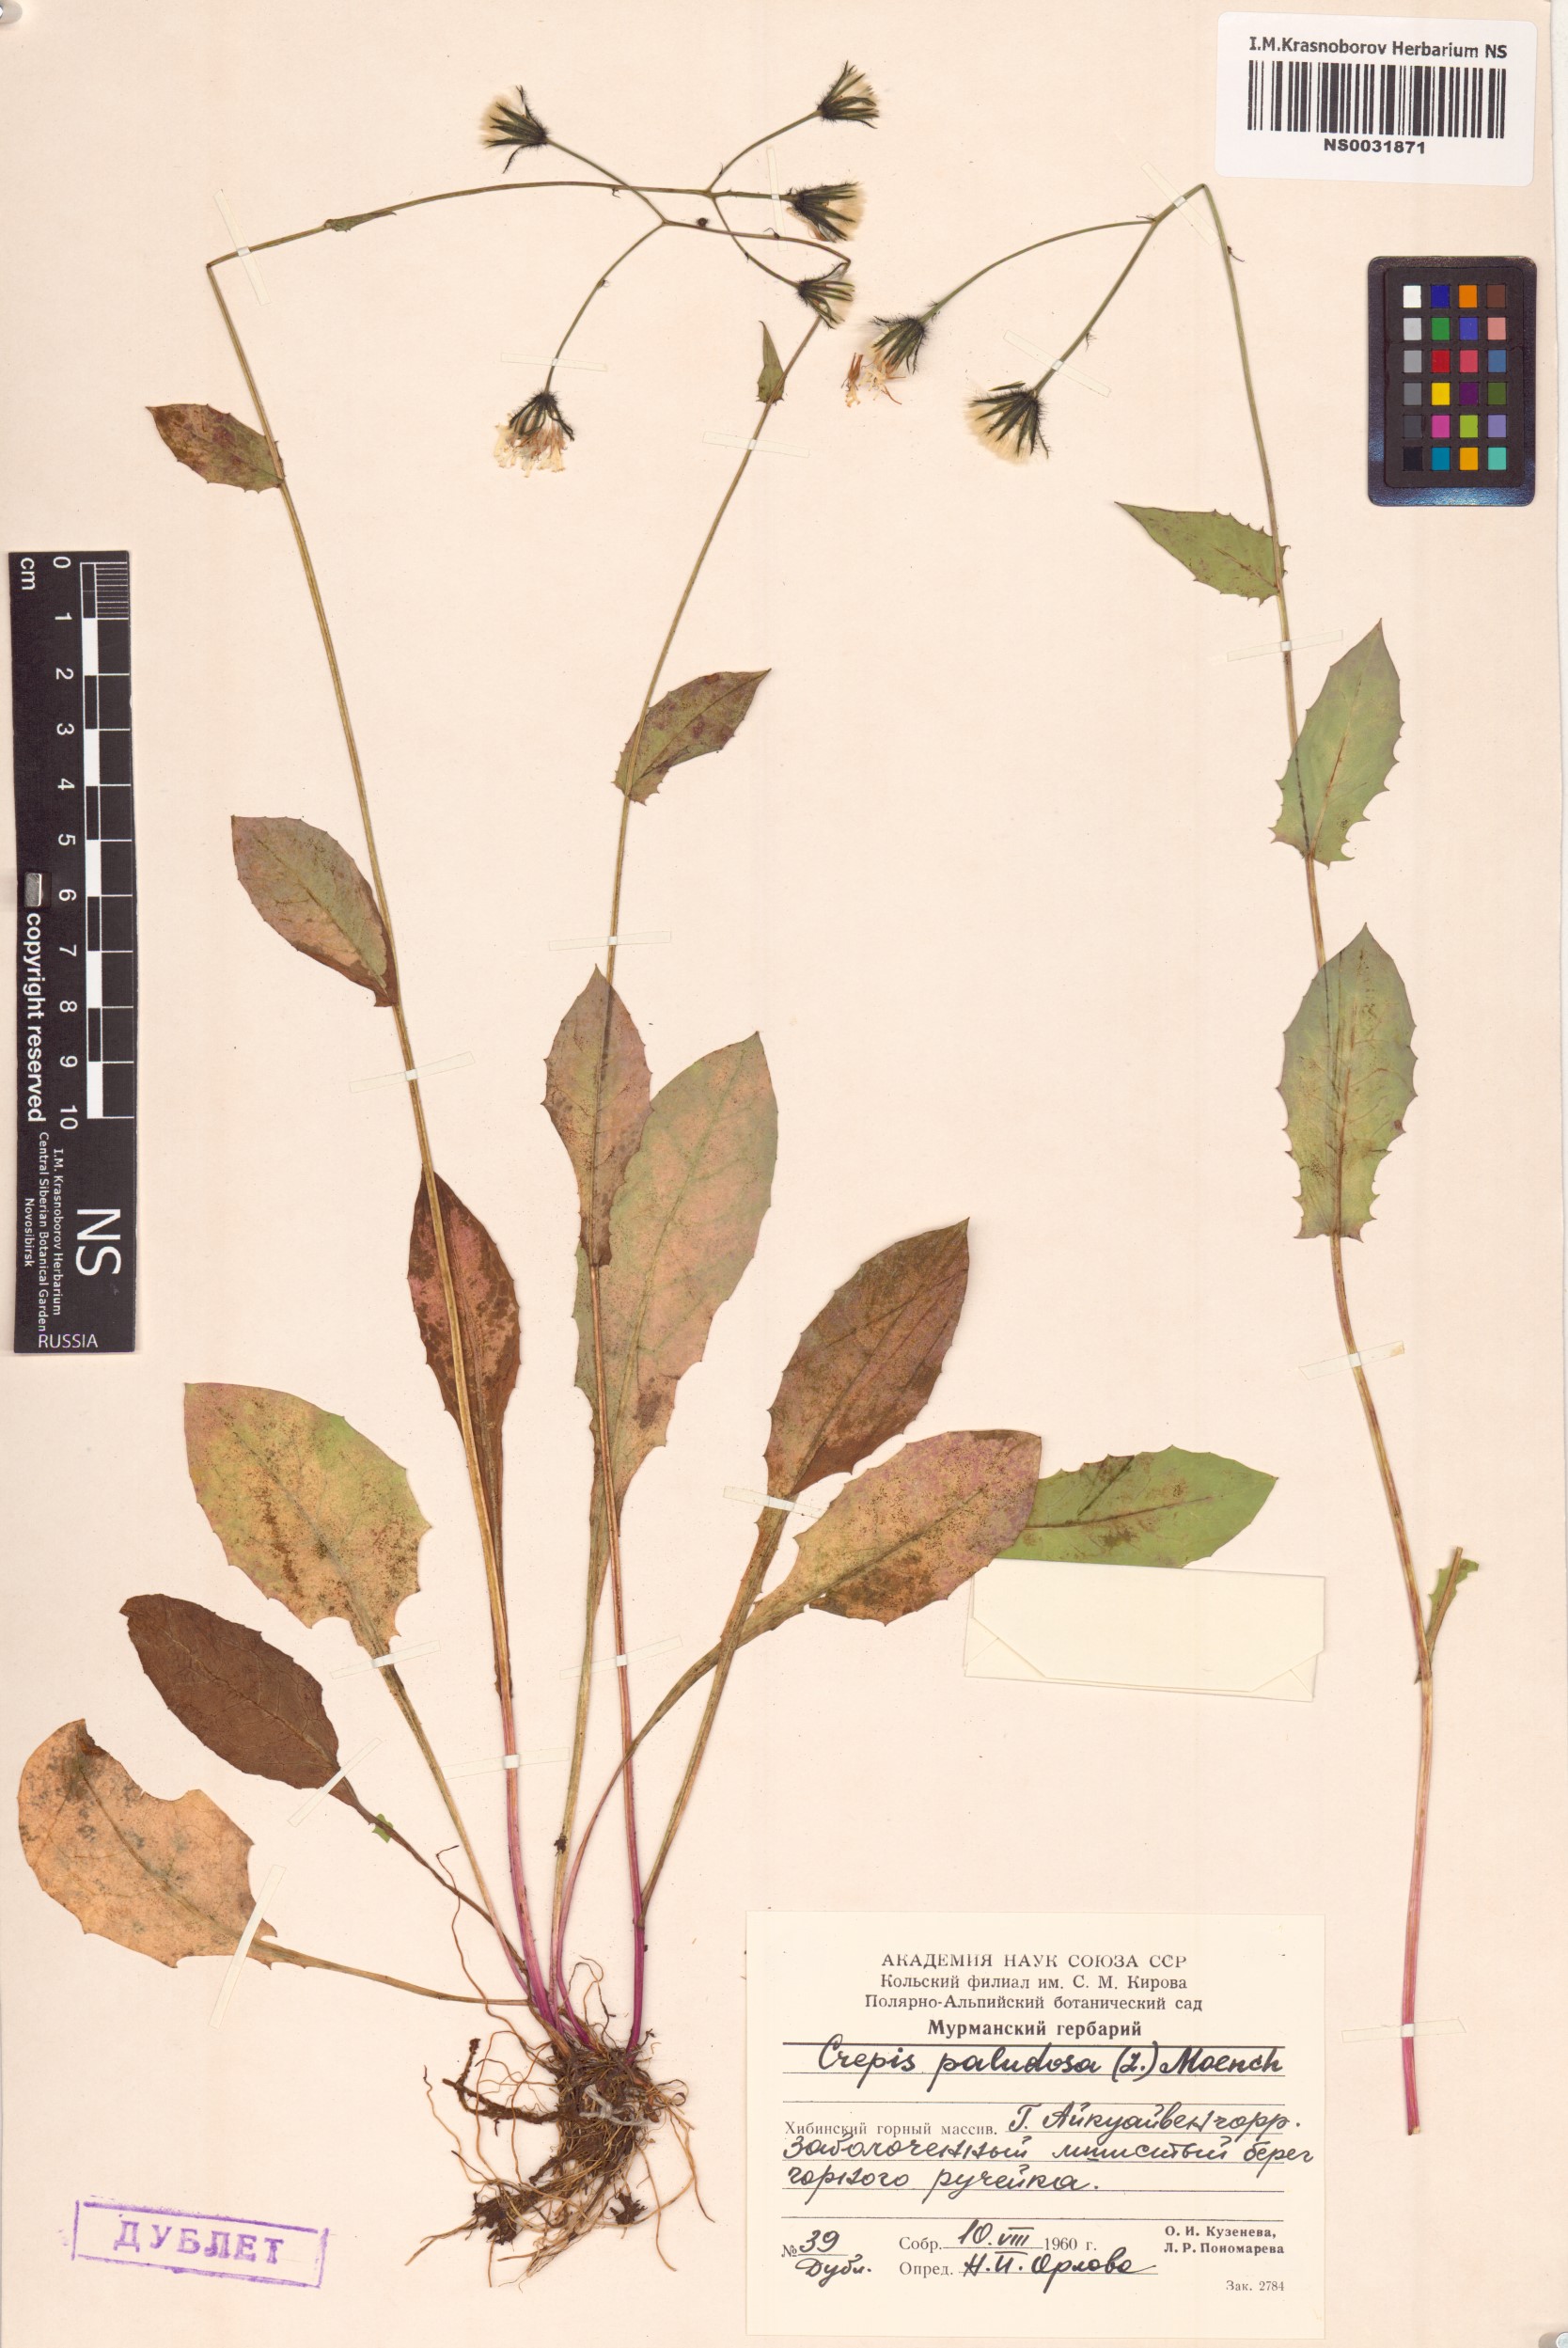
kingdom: Plantae
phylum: Tracheophyta
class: Magnoliopsida
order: Asterales
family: Asteraceae
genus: Crepis
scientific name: Crepis paludosa
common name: Marsh hawk's-beard
